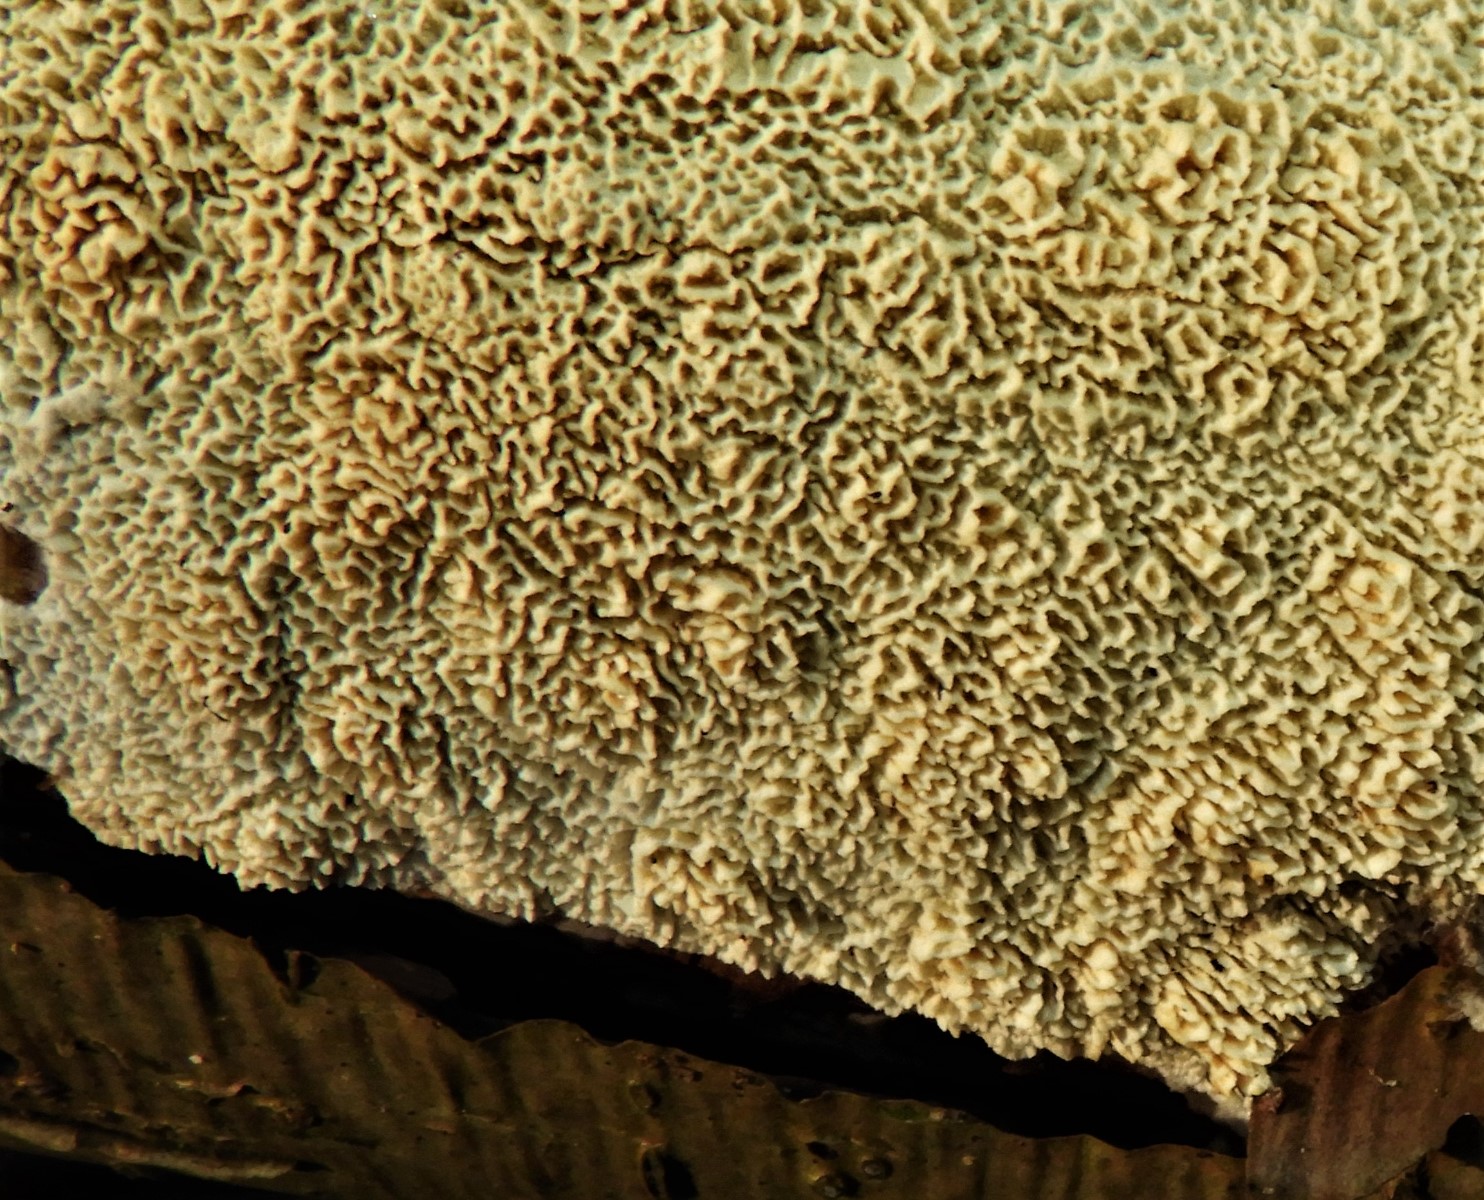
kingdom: Fungi
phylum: Basidiomycota
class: Agaricomycetes
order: Hymenochaetales
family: Schizoporaceae
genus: Xylodon
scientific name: Xylodon
